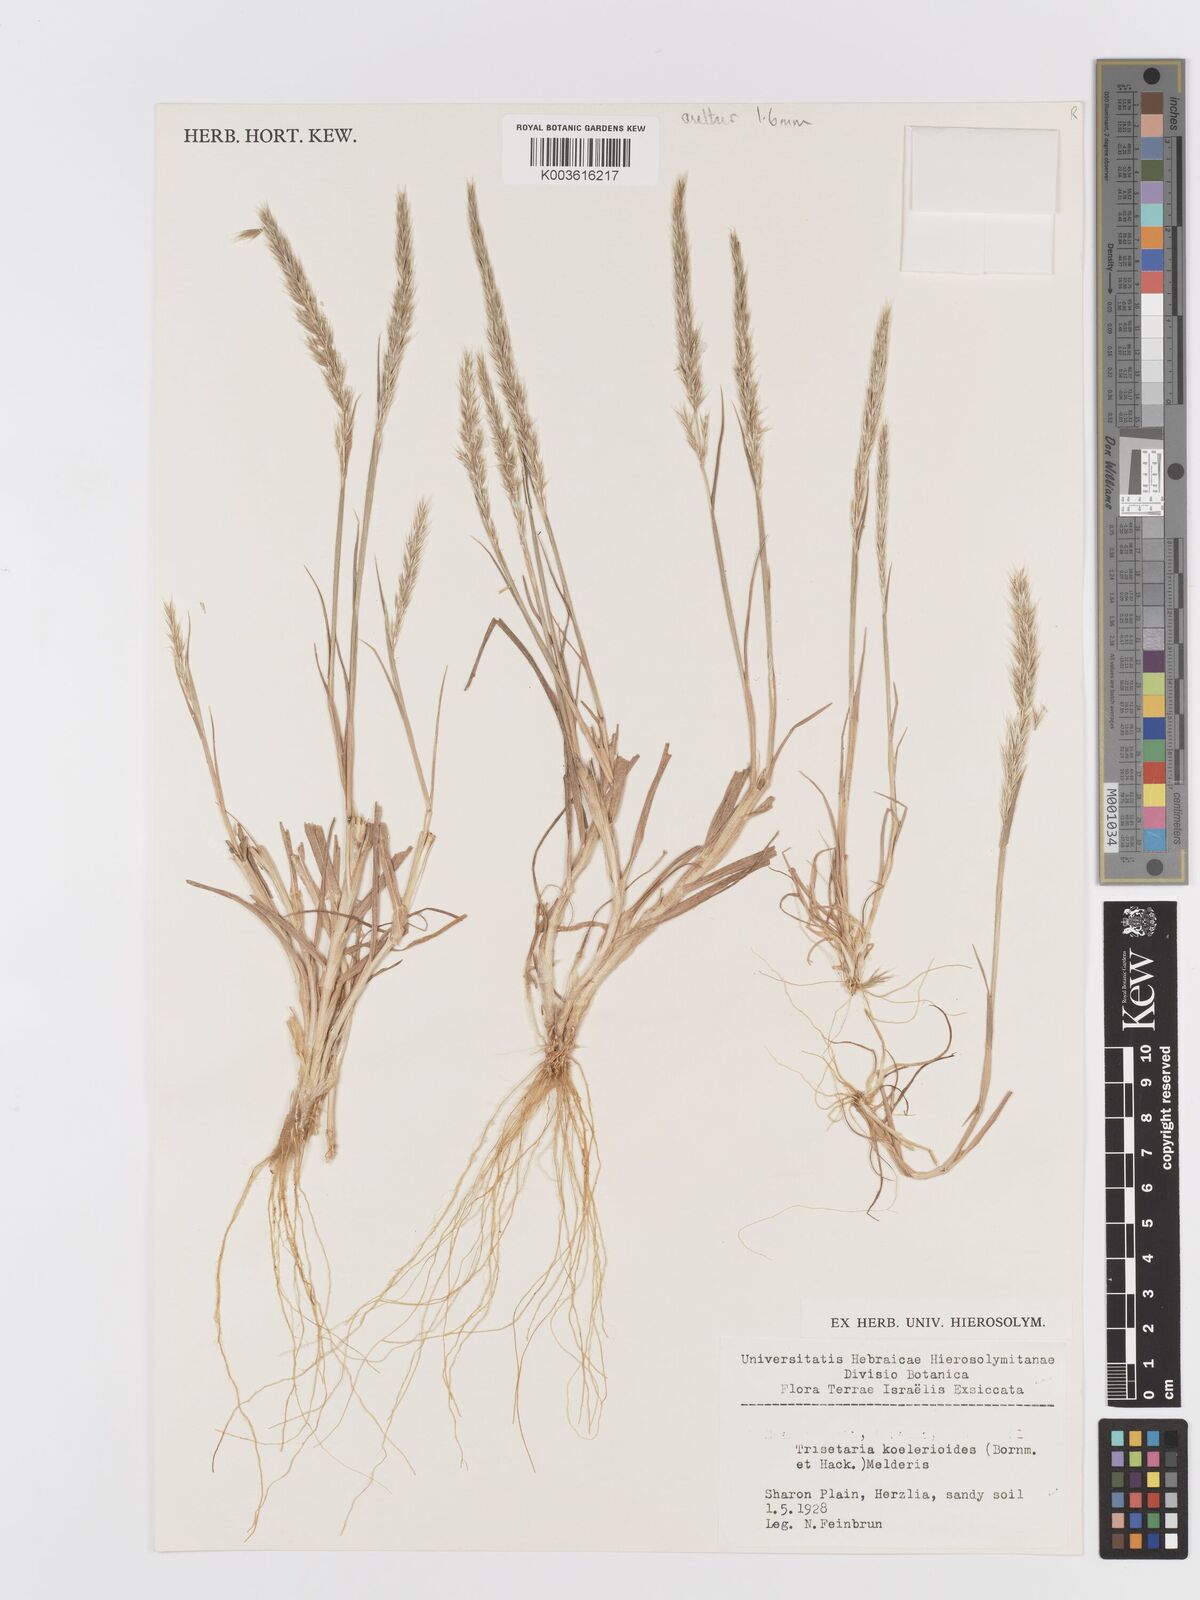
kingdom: Plantae
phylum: Tracheophyta
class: Liliopsida
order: Poales
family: Poaceae
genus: Trisetaria
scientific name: Trisetaria koelerioides
